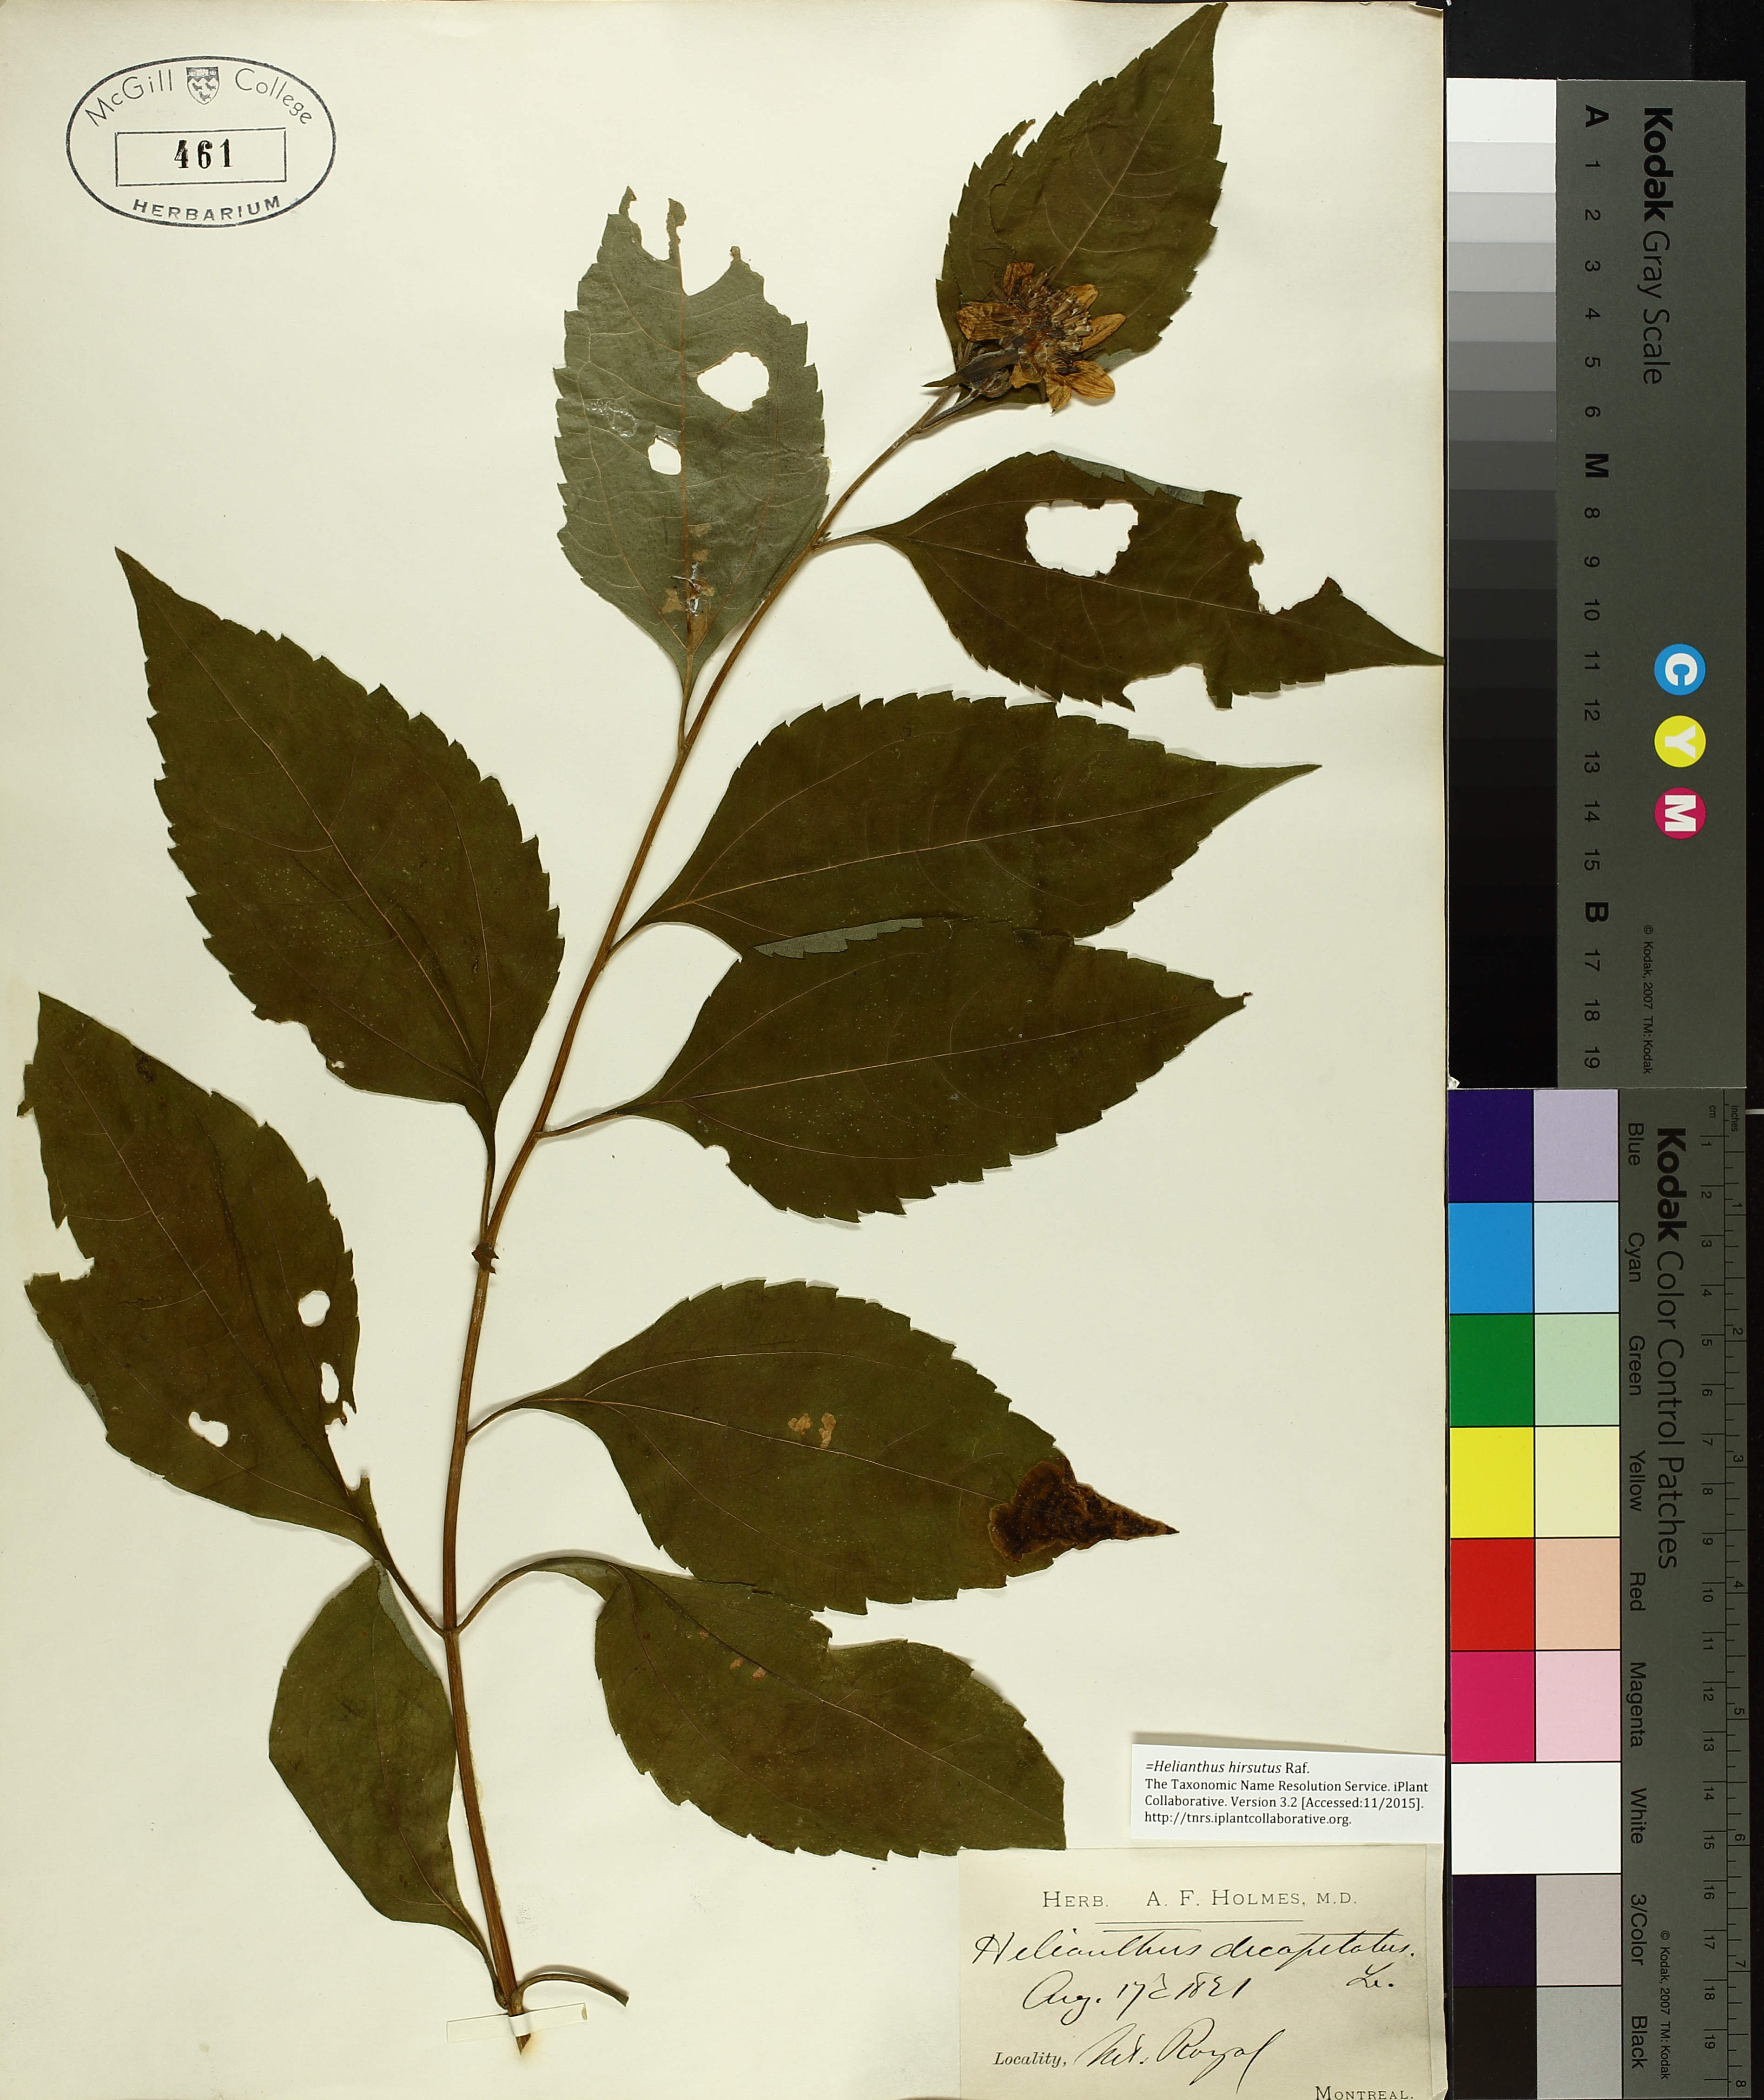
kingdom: Plantae
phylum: Tracheophyta
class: Magnoliopsida
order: Asterales
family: Asteraceae
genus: Helianthus
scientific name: Helianthus decapetalus
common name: Thin-leaved sunflower
